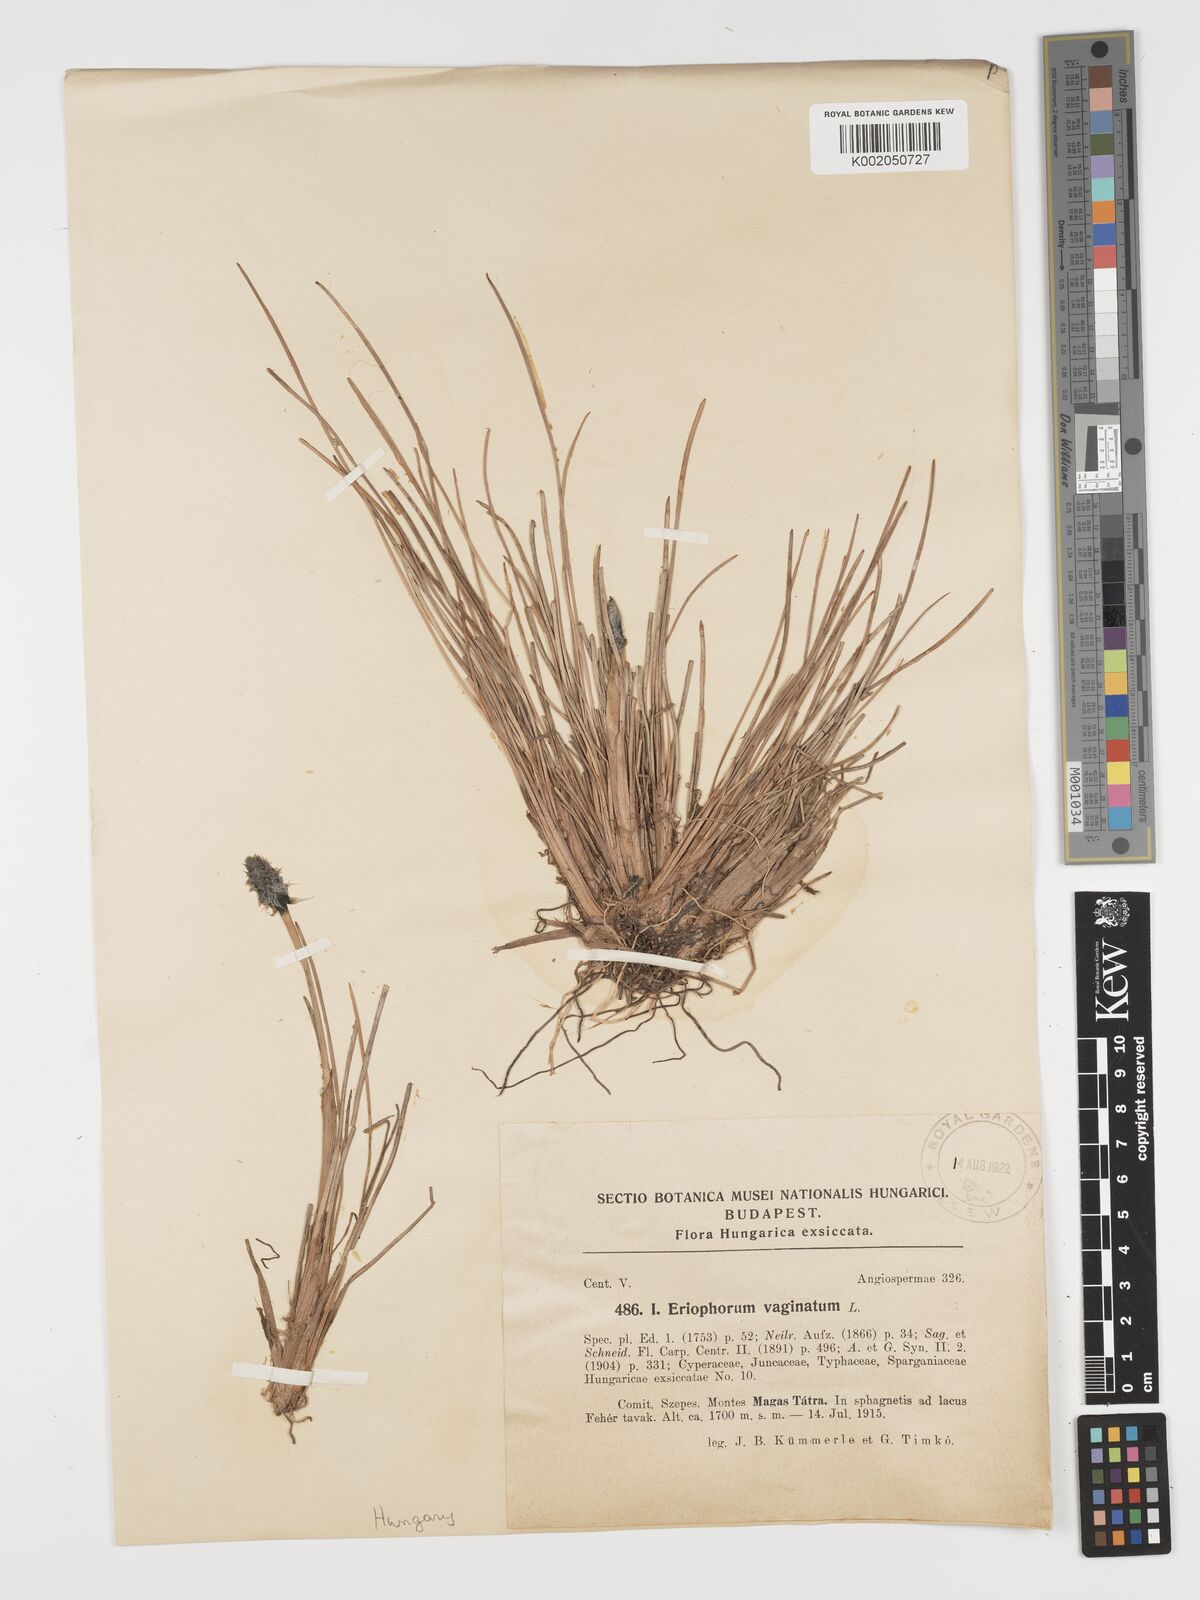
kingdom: Plantae
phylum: Tracheophyta
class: Liliopsida
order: Poales
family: Cyperaceae
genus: Eriophorum
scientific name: Eriophorum vaginatum
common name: Hare's-tail cottongrass
